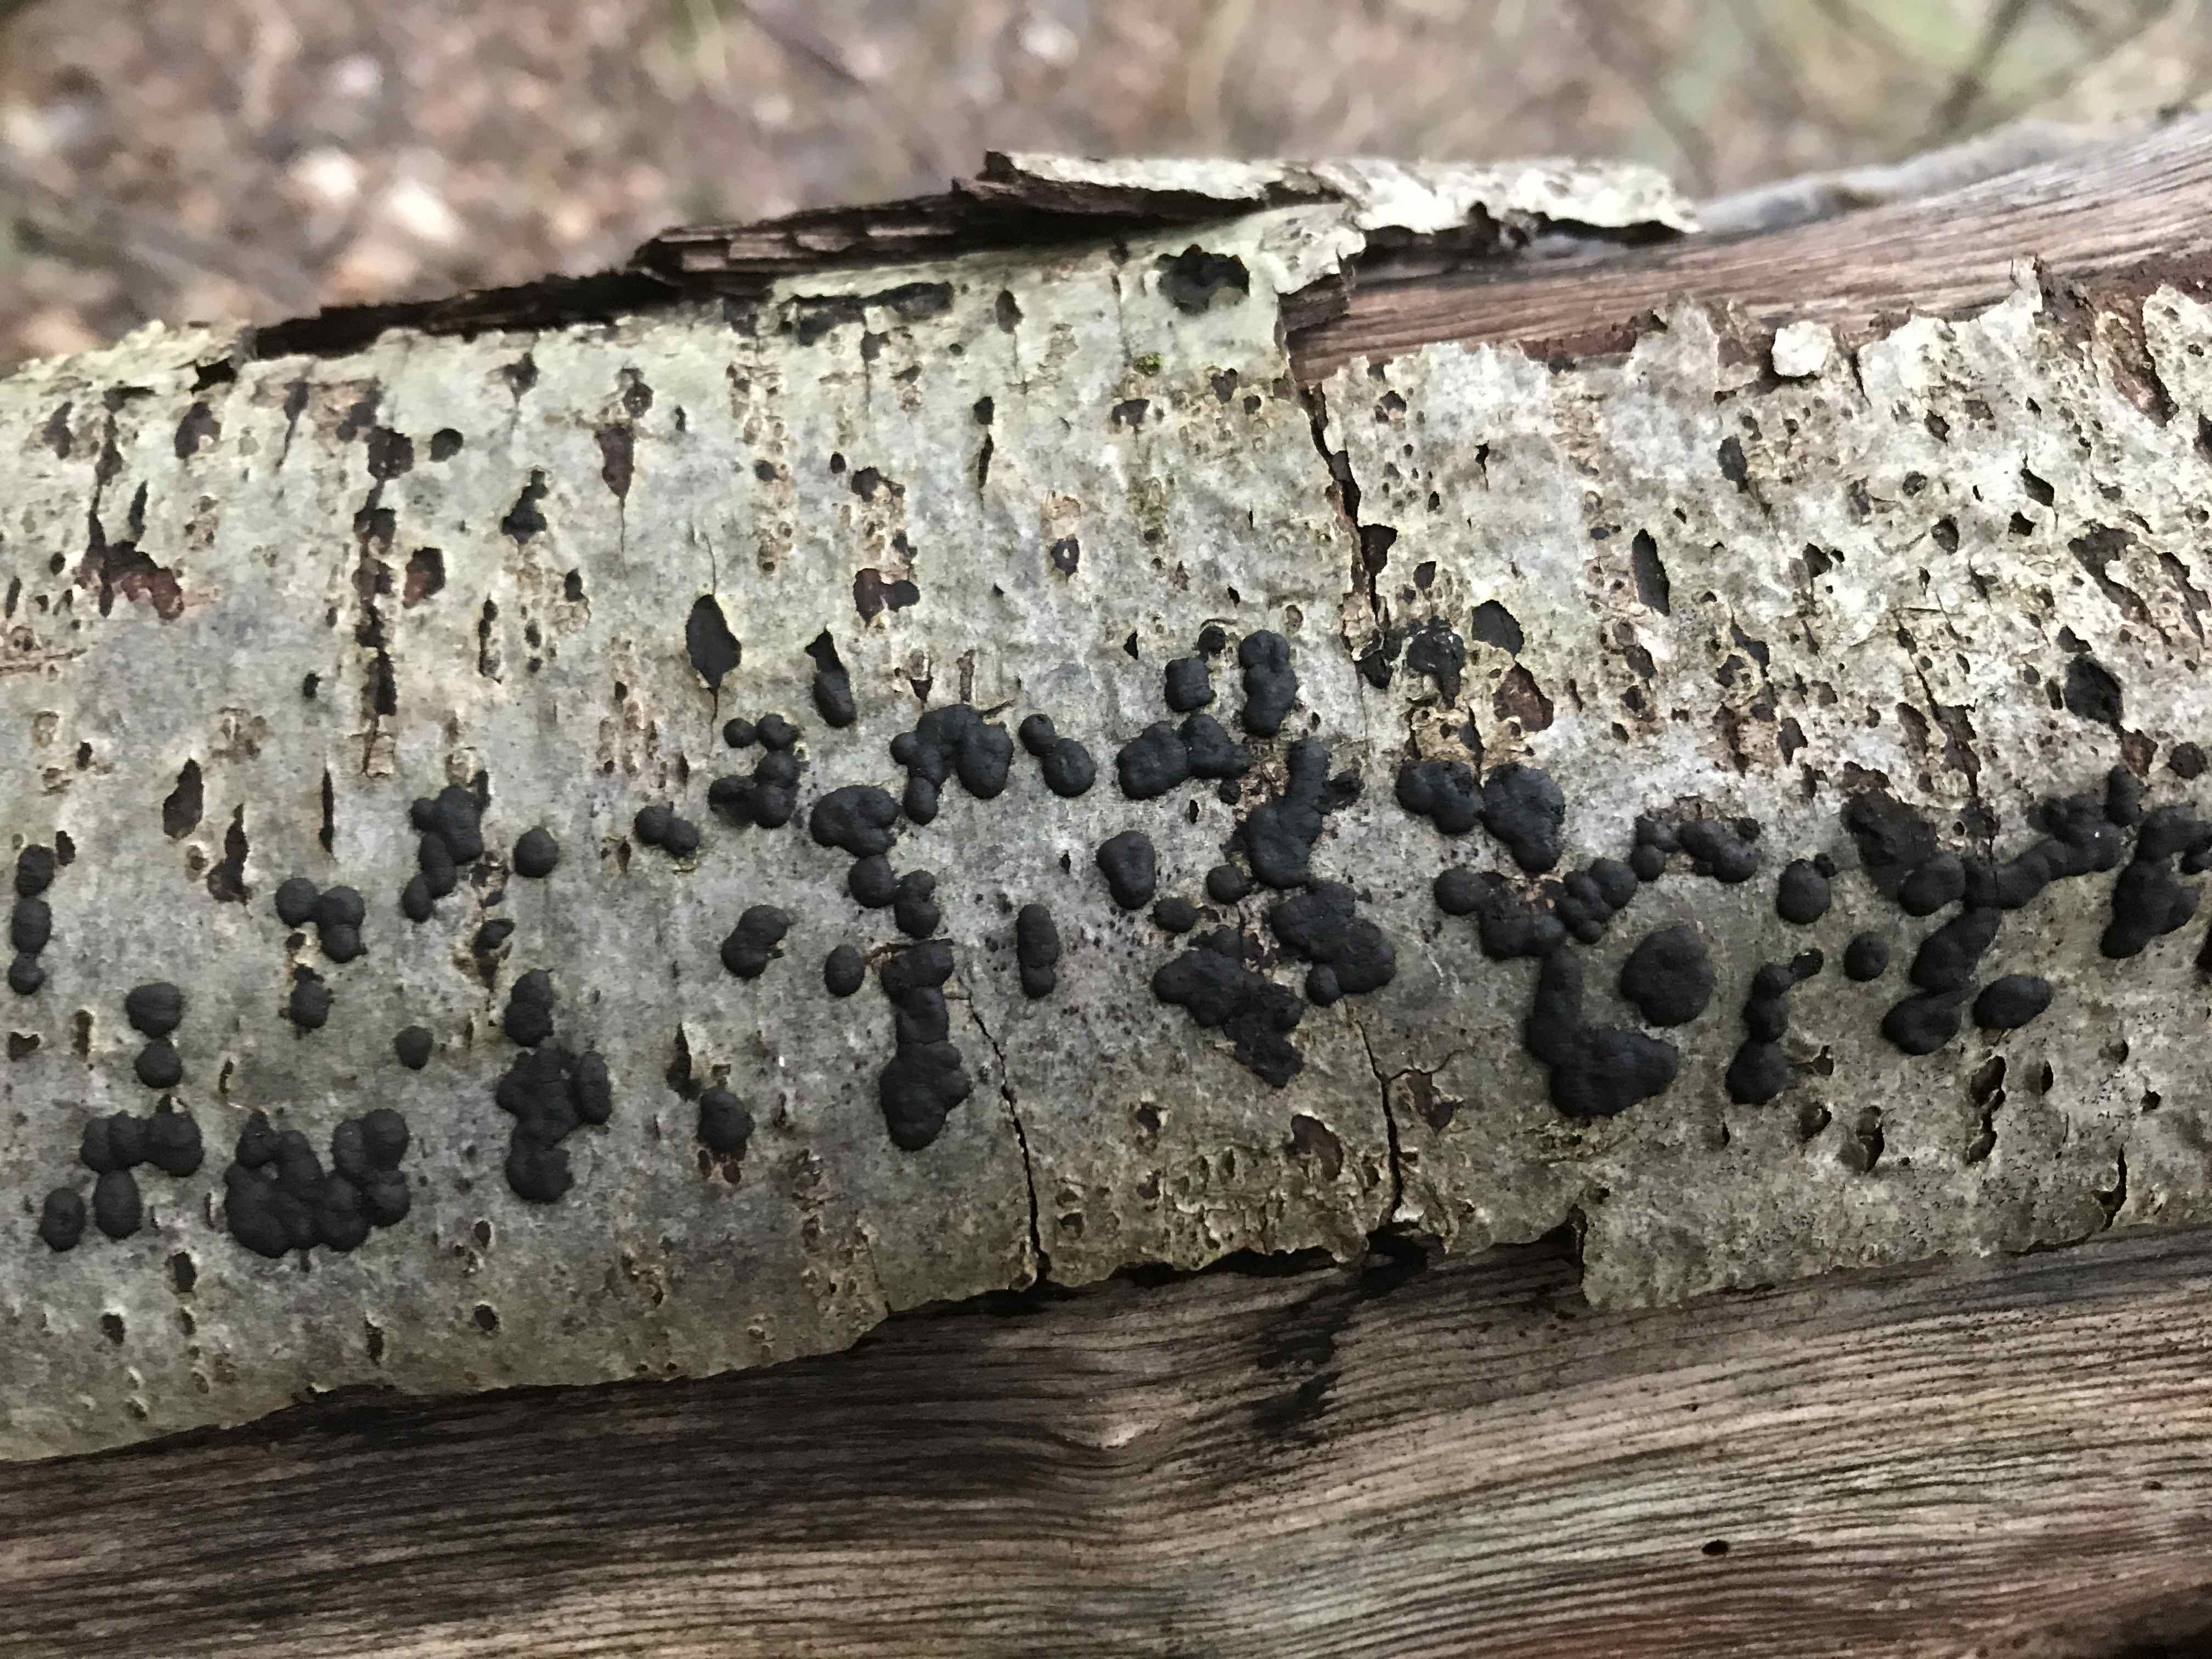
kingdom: Fungi
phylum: Ascomycota
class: Sordariomycetes
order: Xylariales
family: Hypoxylaceae
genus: Hypoxylon
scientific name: Hypoxylon fuscum
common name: kegleformet kulbær
